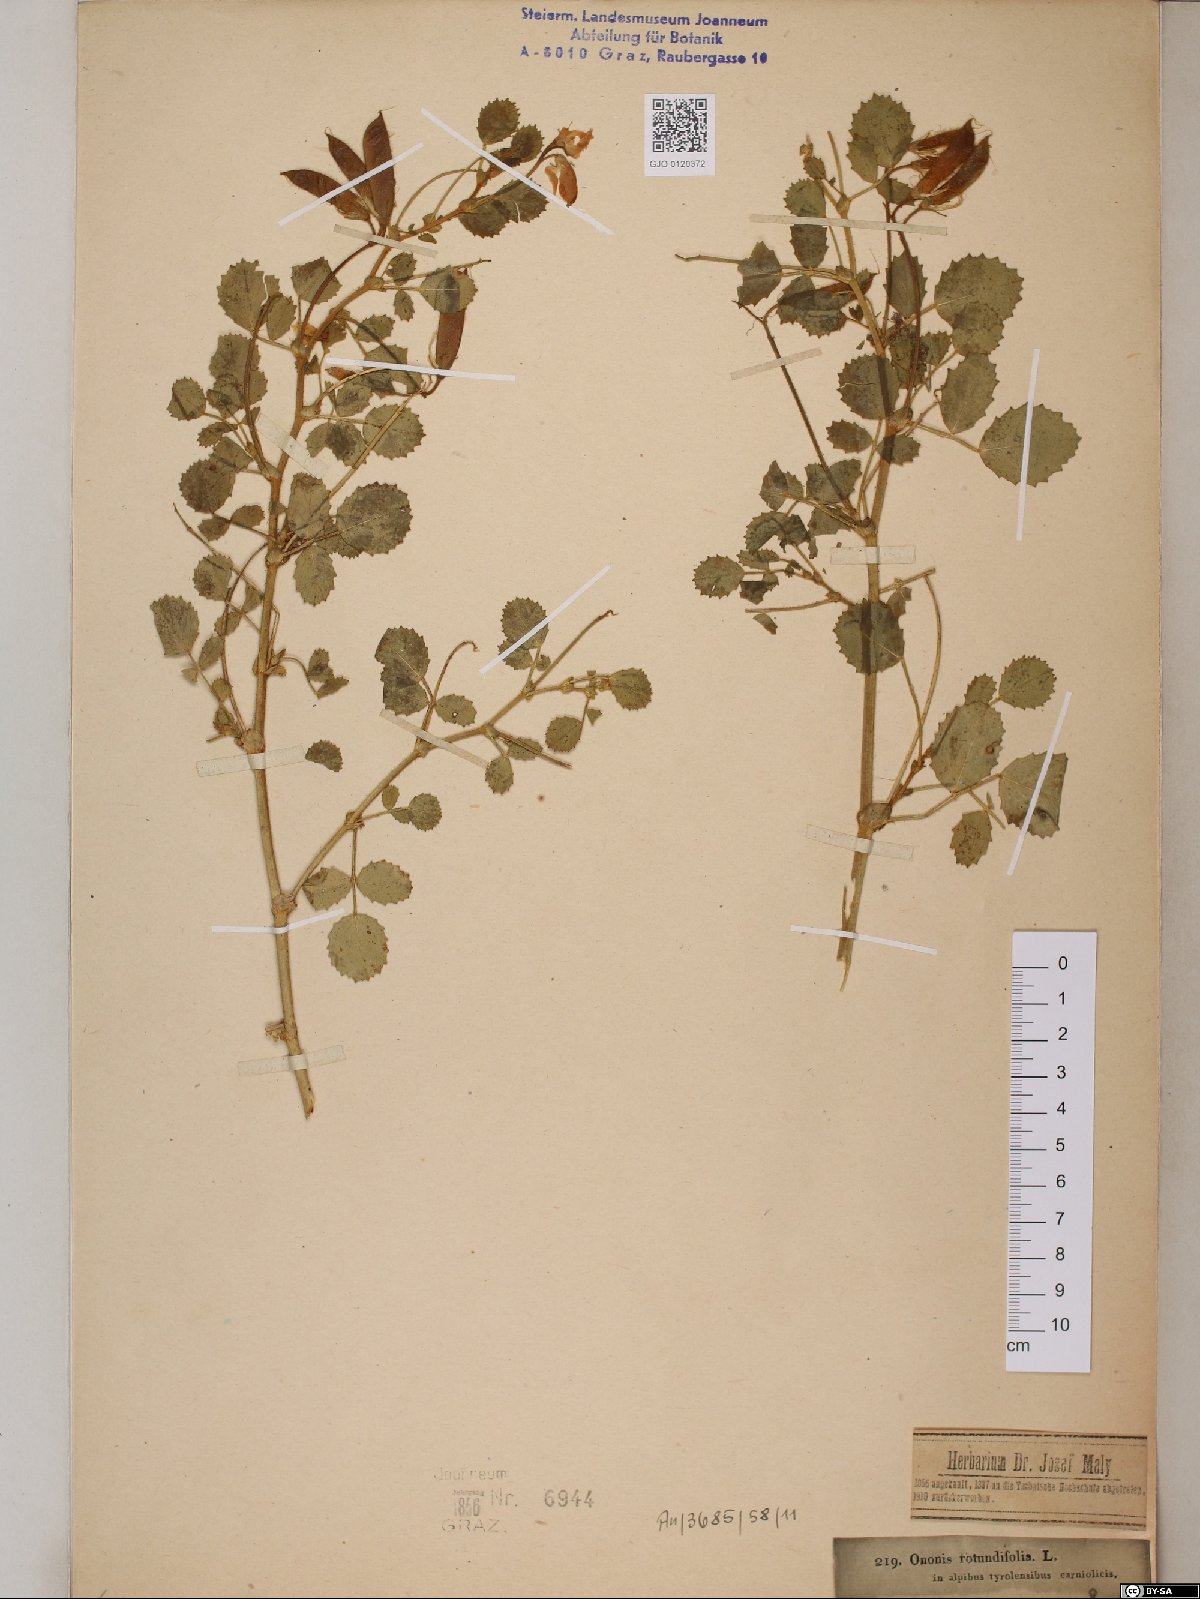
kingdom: Plantae
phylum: Tracheophyta
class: Magnoliopsida
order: Fabales
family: Fabaceae
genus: Ononis
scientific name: Ononis rotundifolia
